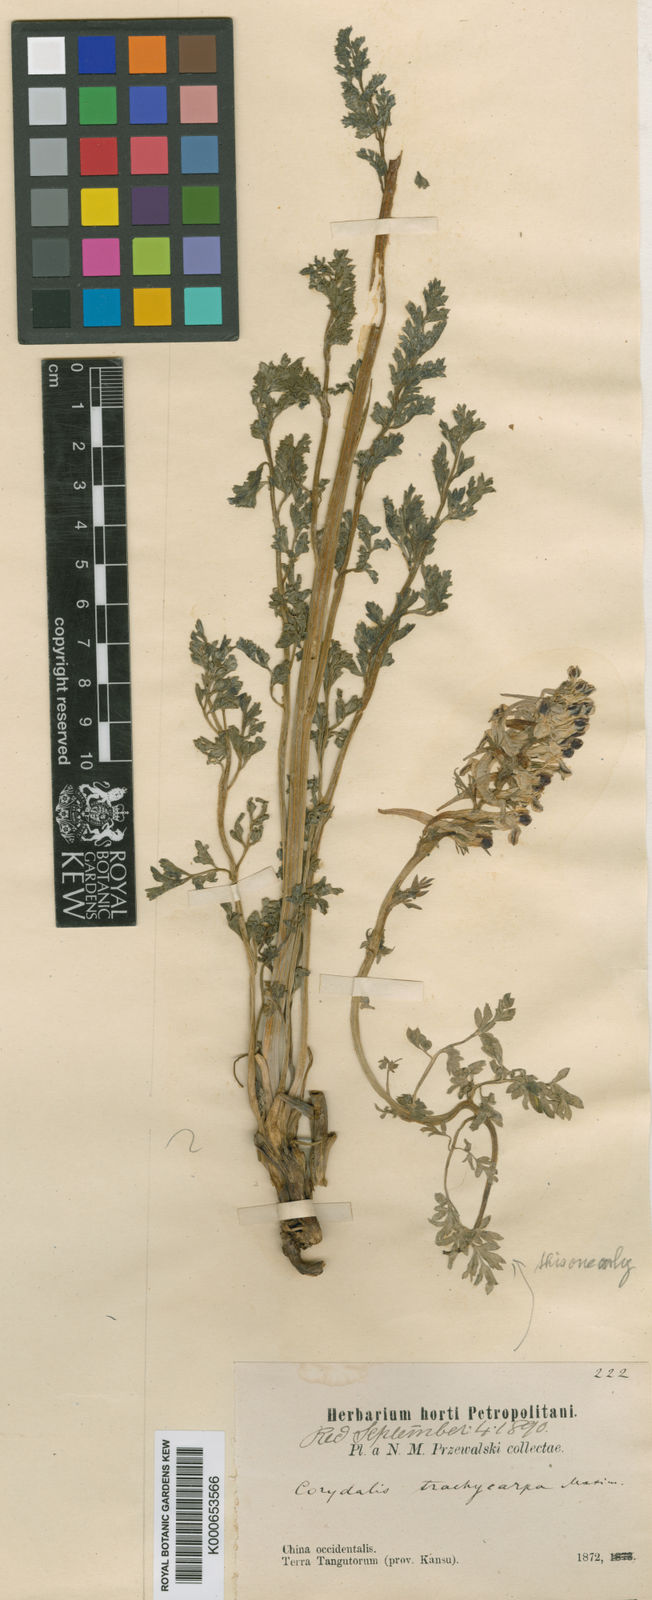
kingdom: Plantae
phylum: Tracheophyta
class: Magnoliopsida
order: Ranunculales
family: Papaveraceae
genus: Corydalis
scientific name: Corydalis trachycarpa
